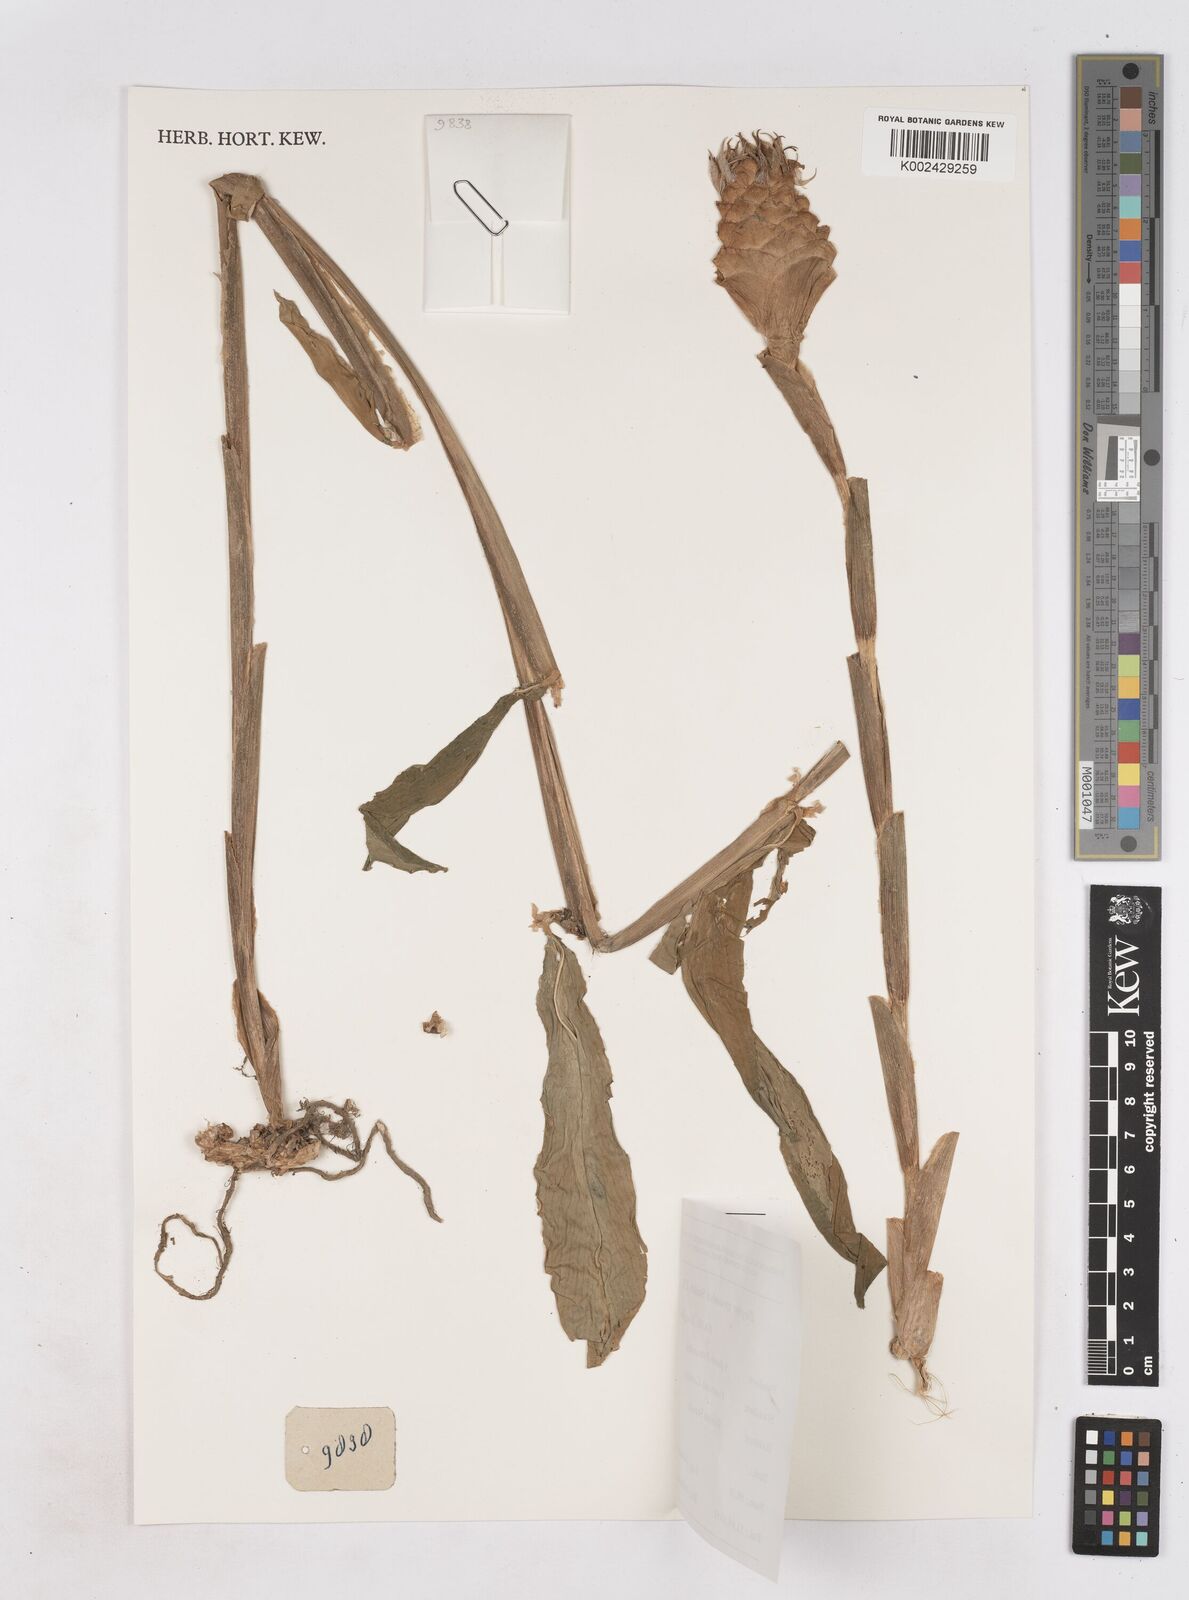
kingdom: Plantae
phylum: Tracheophyta
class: Liliopsida
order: Zingiberales
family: Zingiberaceae
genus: Zingiber
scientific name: Zingiber zerumbet
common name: Bitter ginger
